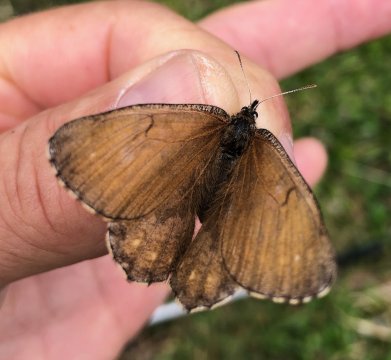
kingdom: Animalia
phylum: Arthropoda
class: Insecta
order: Lepidoptera
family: Nymphalidae
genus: Oeneis
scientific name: Oeneis bore
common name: White-veined Arctic
